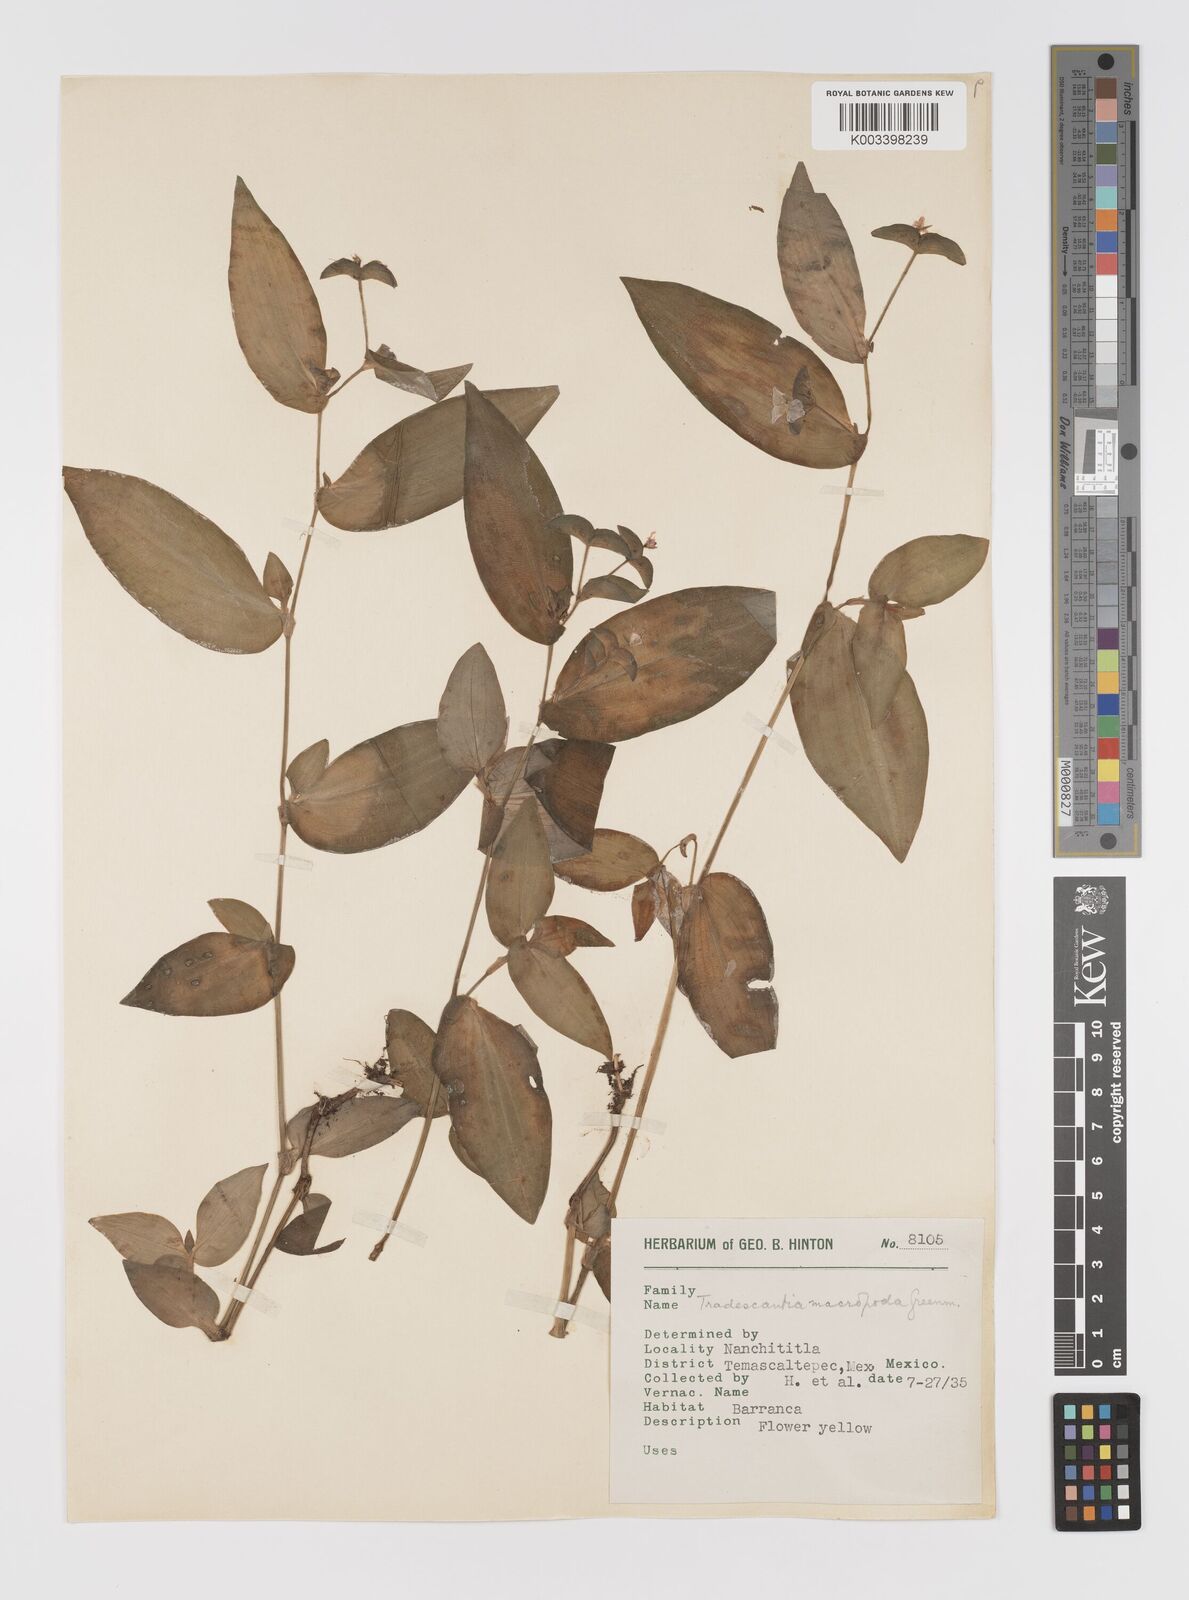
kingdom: Plantae
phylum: Tracheophyta
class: Liliopsida
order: Commelinales
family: Commelinaceae
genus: Tradescantia
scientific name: Tradescantia commelinoides
